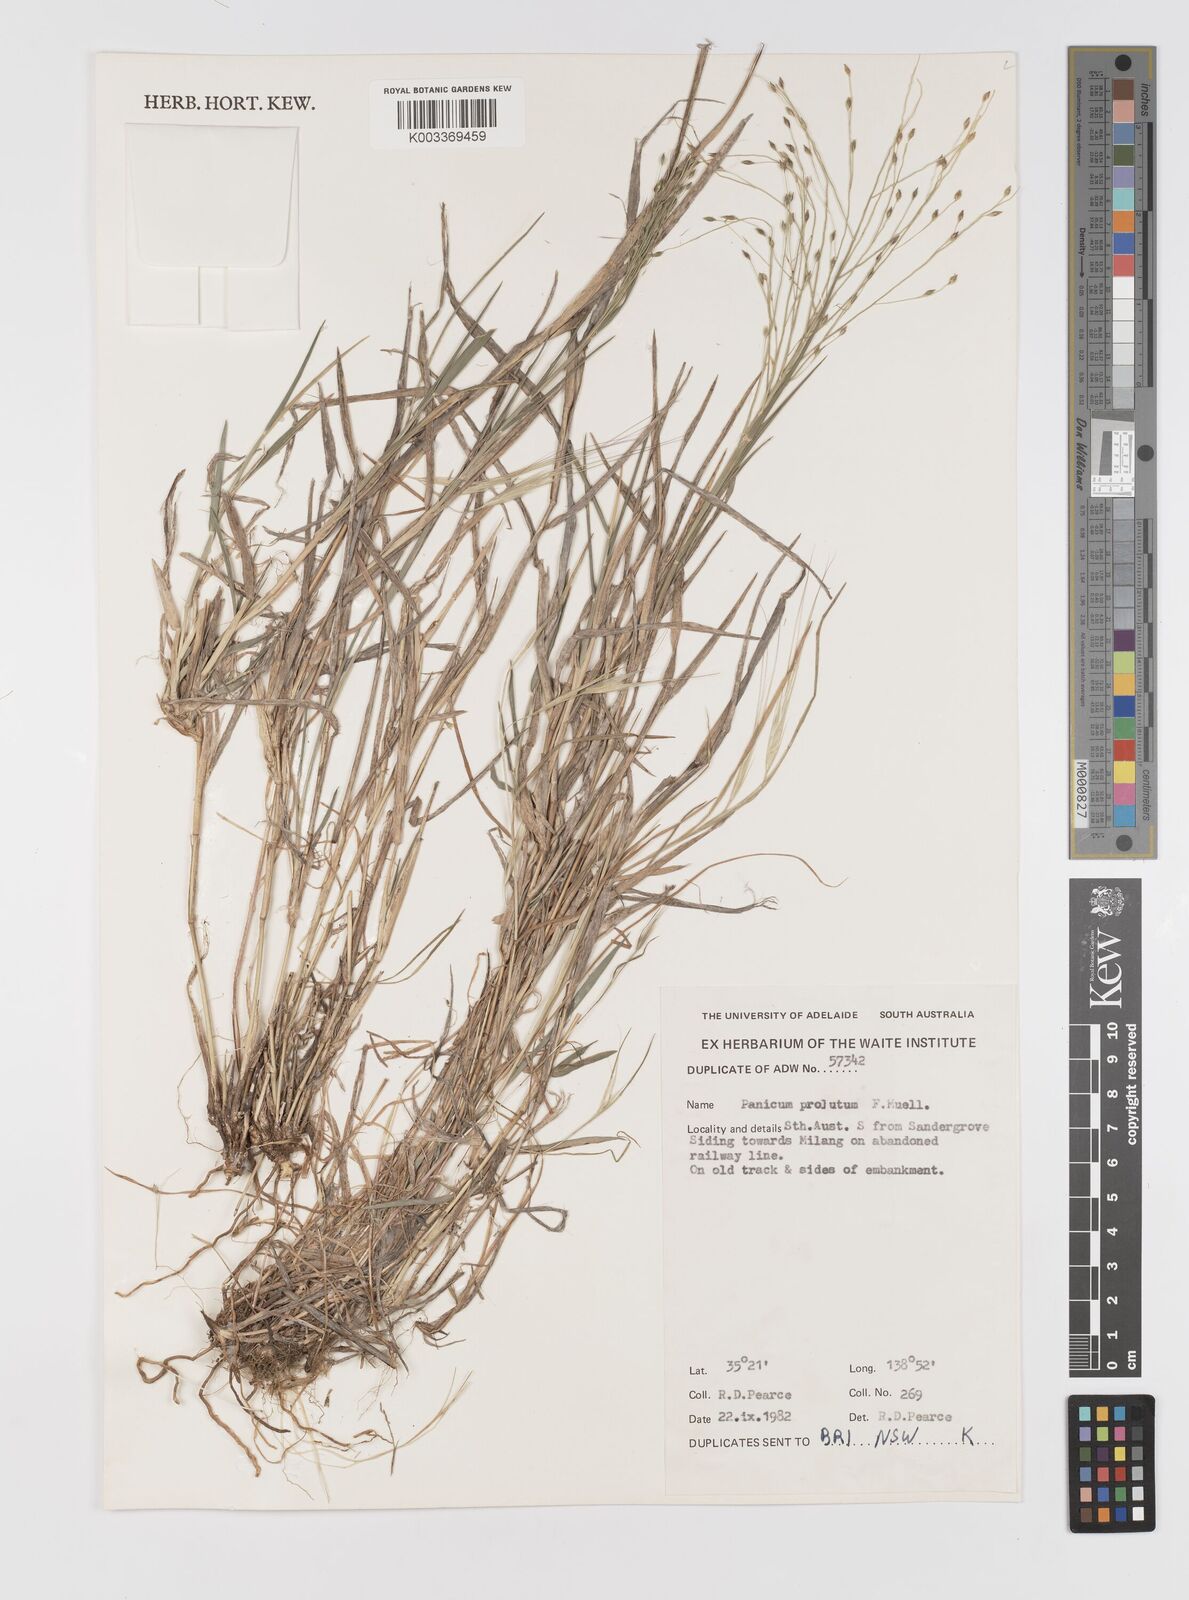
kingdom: Plantae
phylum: Tracheophyta
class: Liliopsida
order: Poales
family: Poaceae
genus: Walwhalleya
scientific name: Walwhalleya proluta
